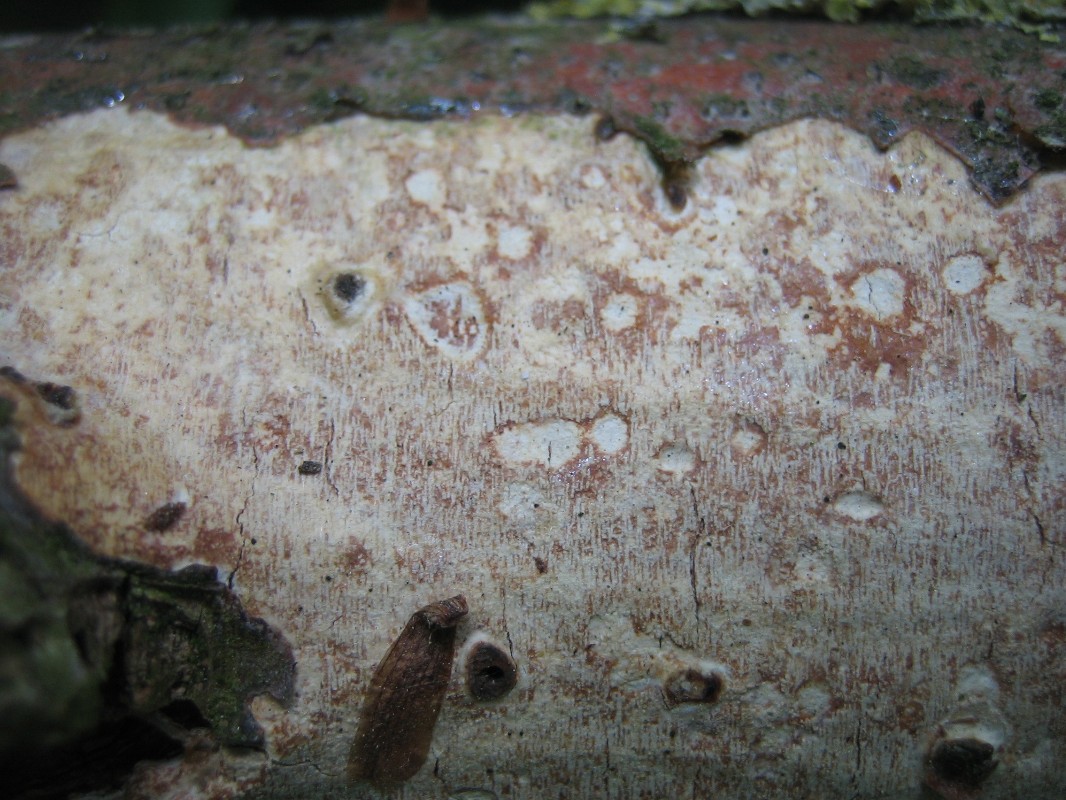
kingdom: Fungi
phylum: Basidiomycota
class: Agaricomycetes
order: Corticiales
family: Vuilleminiaceae
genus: Vuilleminia
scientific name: Vuilleminia comedens
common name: almindelig barksprænger
